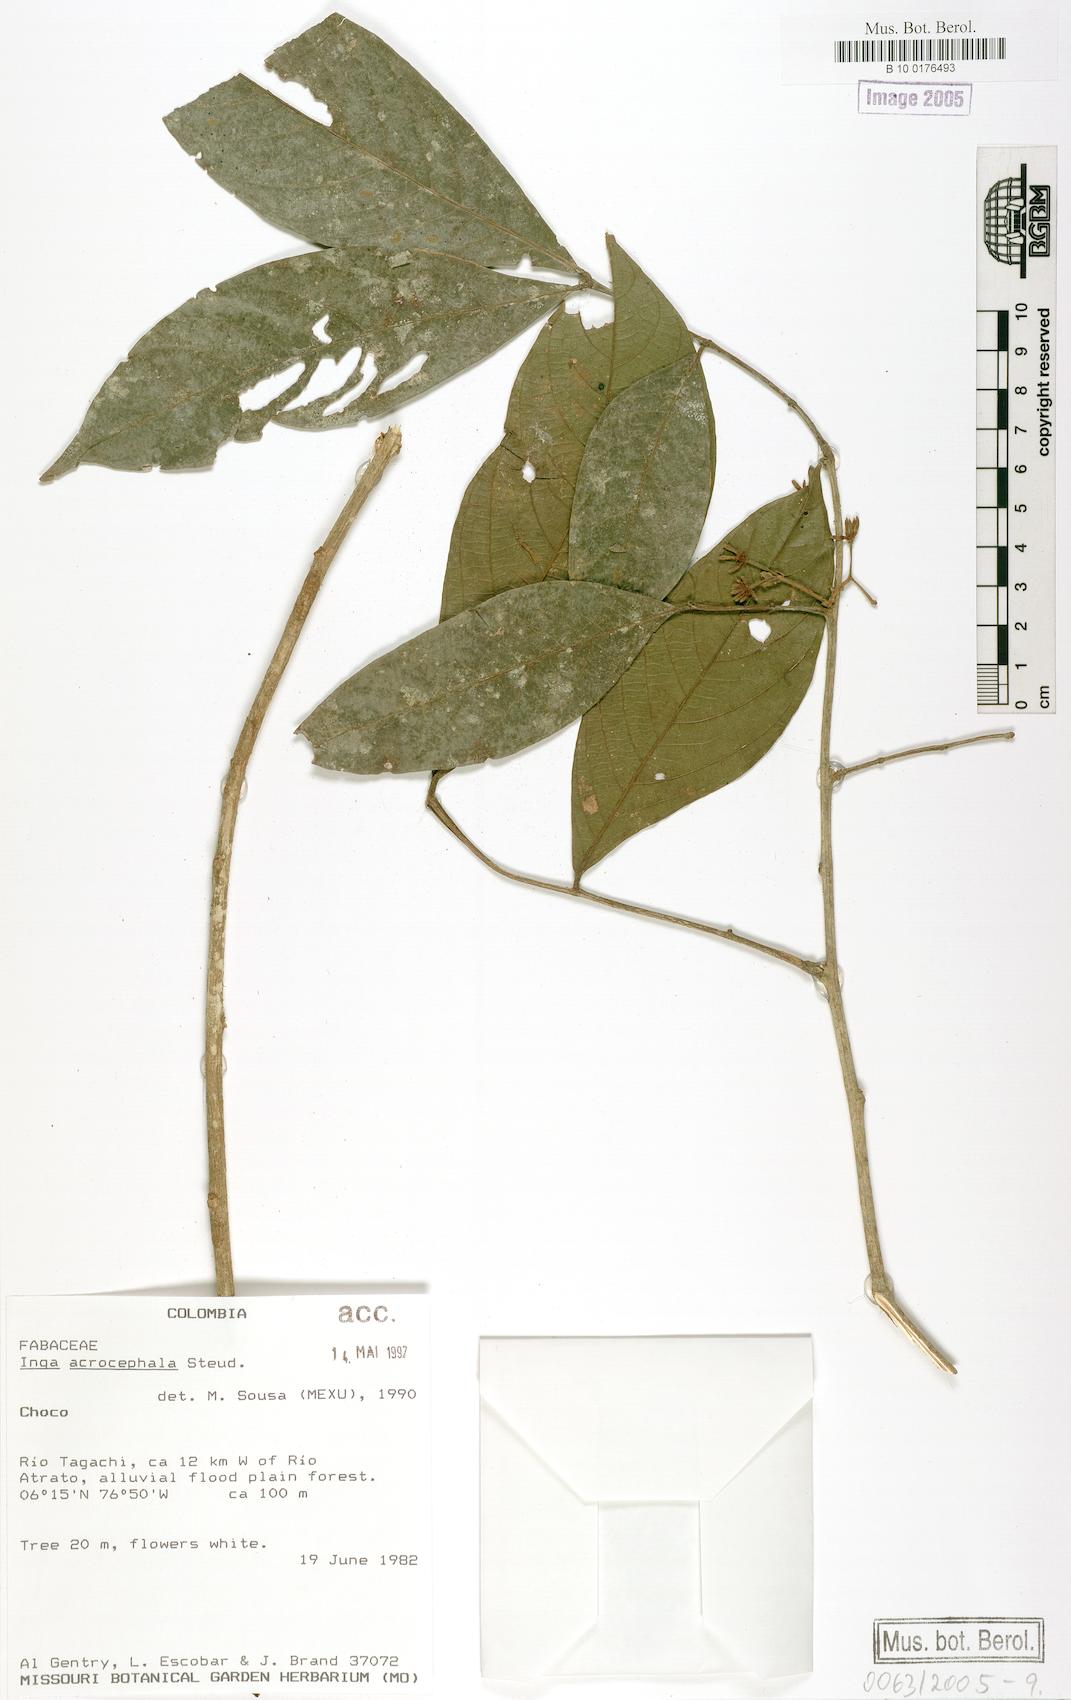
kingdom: Plantae
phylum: Tracheophyta
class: Magnoliopsida
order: Fabales
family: Fabaceae
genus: Inga
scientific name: Inga
